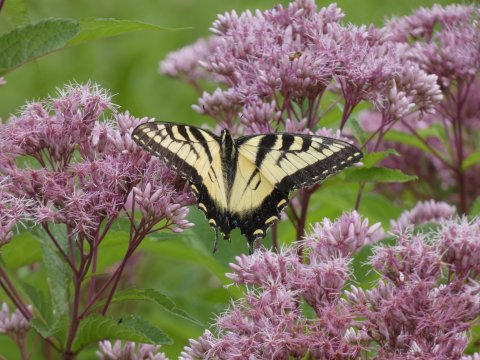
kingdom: Animalia
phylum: Arthropoda
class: Insecta
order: Lepidoptera
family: Papilionidae
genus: Pterourus
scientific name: Pterourus glaucus
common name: Eastern Tiger Swallowtail
